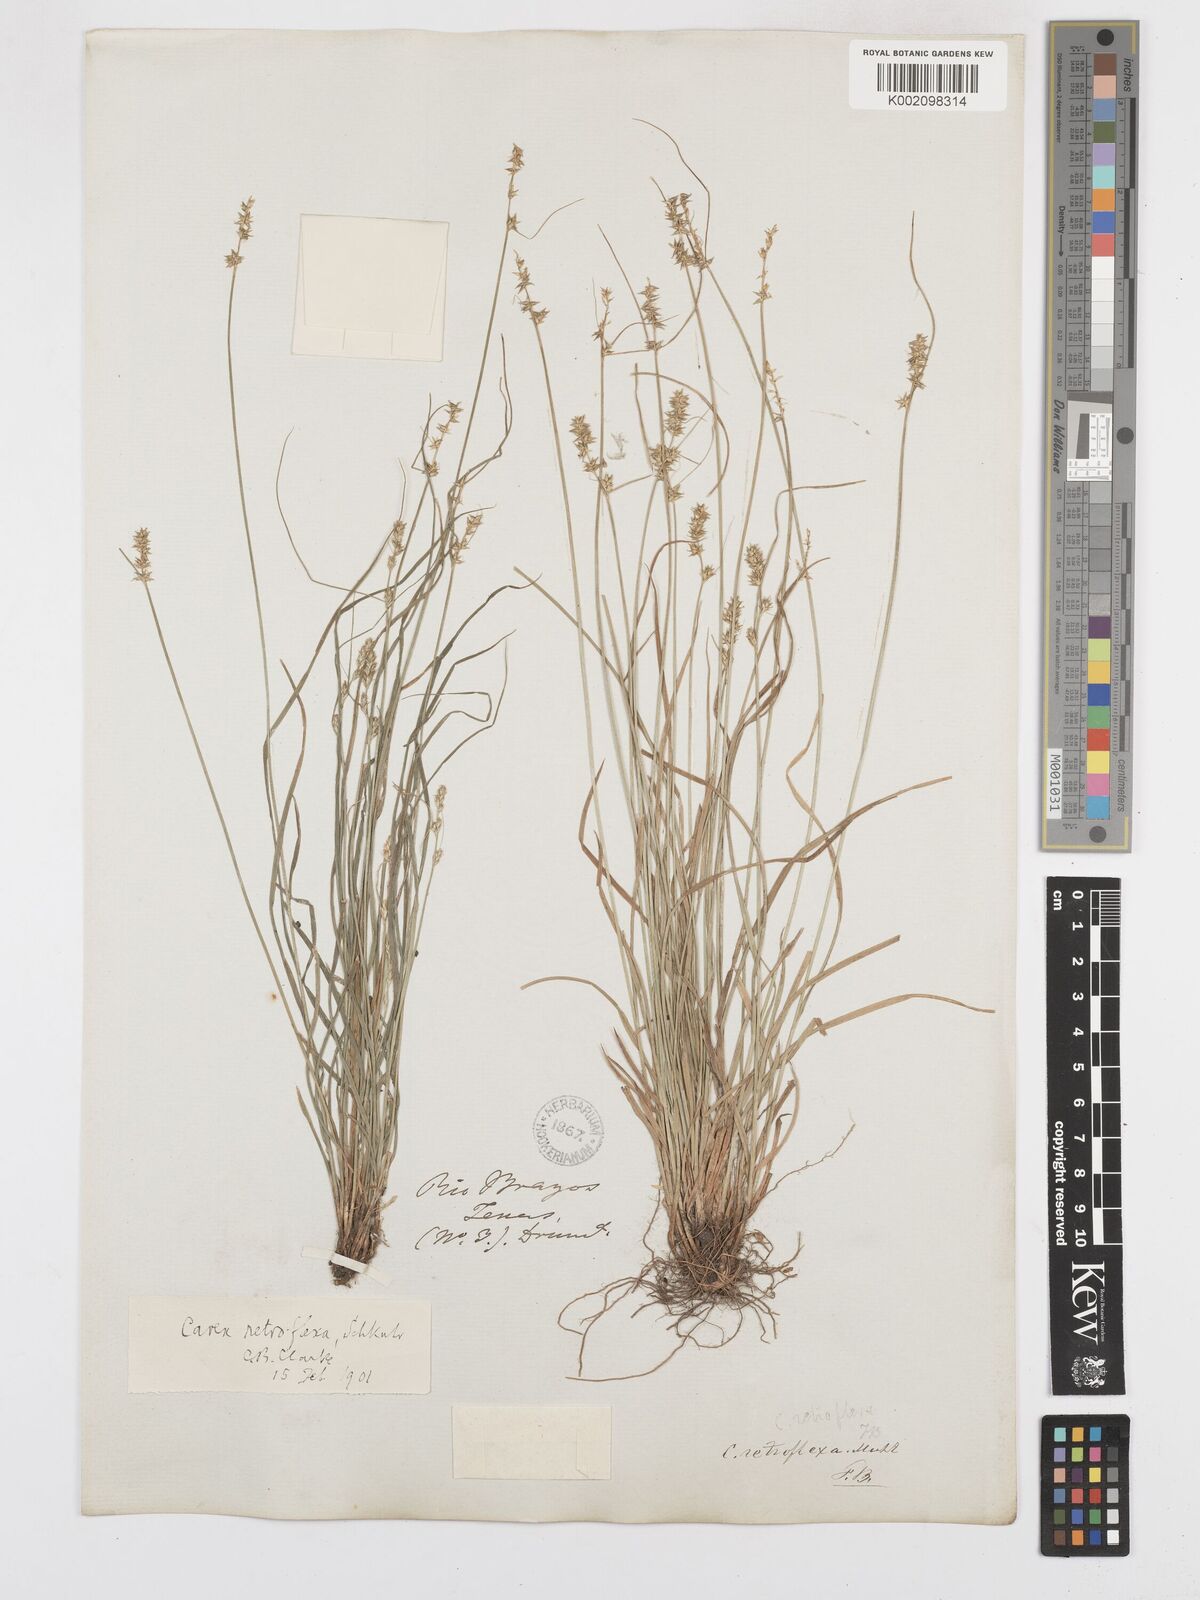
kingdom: Plantae
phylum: Tracheophyta
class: Liliopsida
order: Poales
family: Cyperaceae
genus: Carex
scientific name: Carex retroflexa
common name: Reflexed sedge
